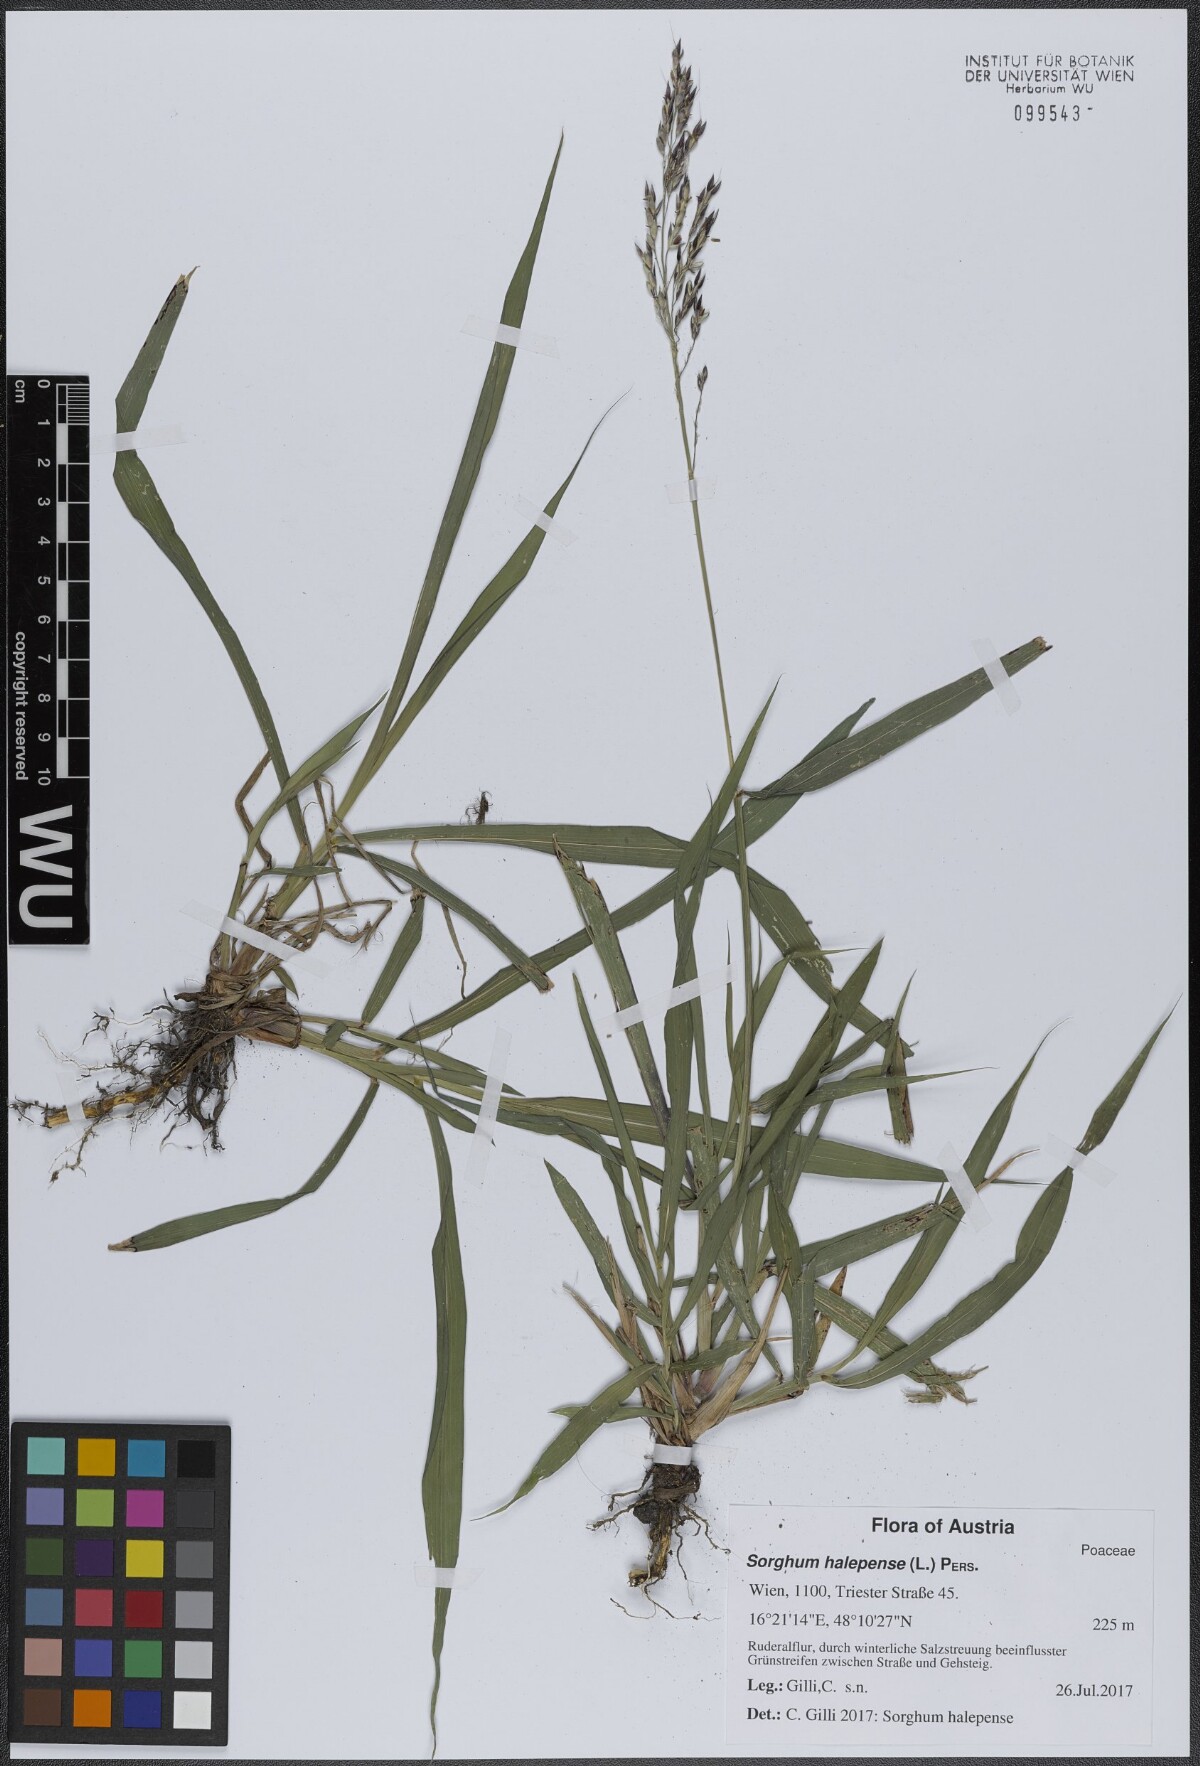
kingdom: Plantae
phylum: Tracheophyta
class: Liliopsida
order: Poales
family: Poaceae
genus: Sorghum
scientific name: Sorghum halepense
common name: Johnson-grass
